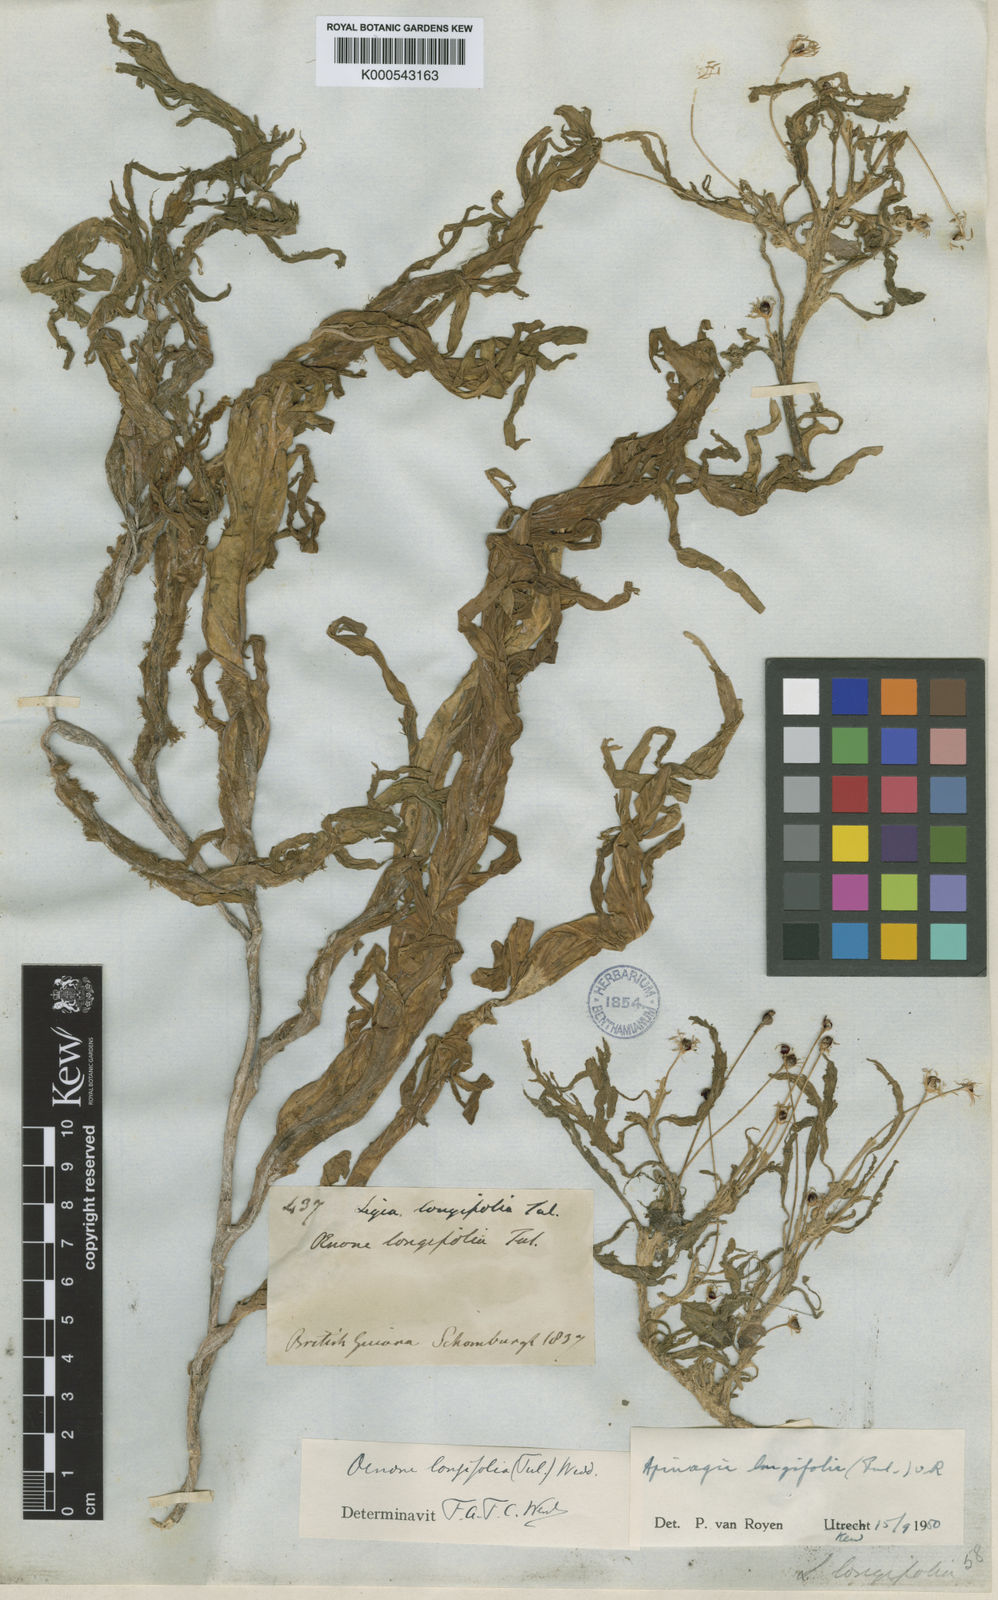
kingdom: Plantae
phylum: Tracheophyta
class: Magnoliopsida
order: Malpighiales
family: Podostemaceae
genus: Apinagia
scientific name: Apinagia longifolia
